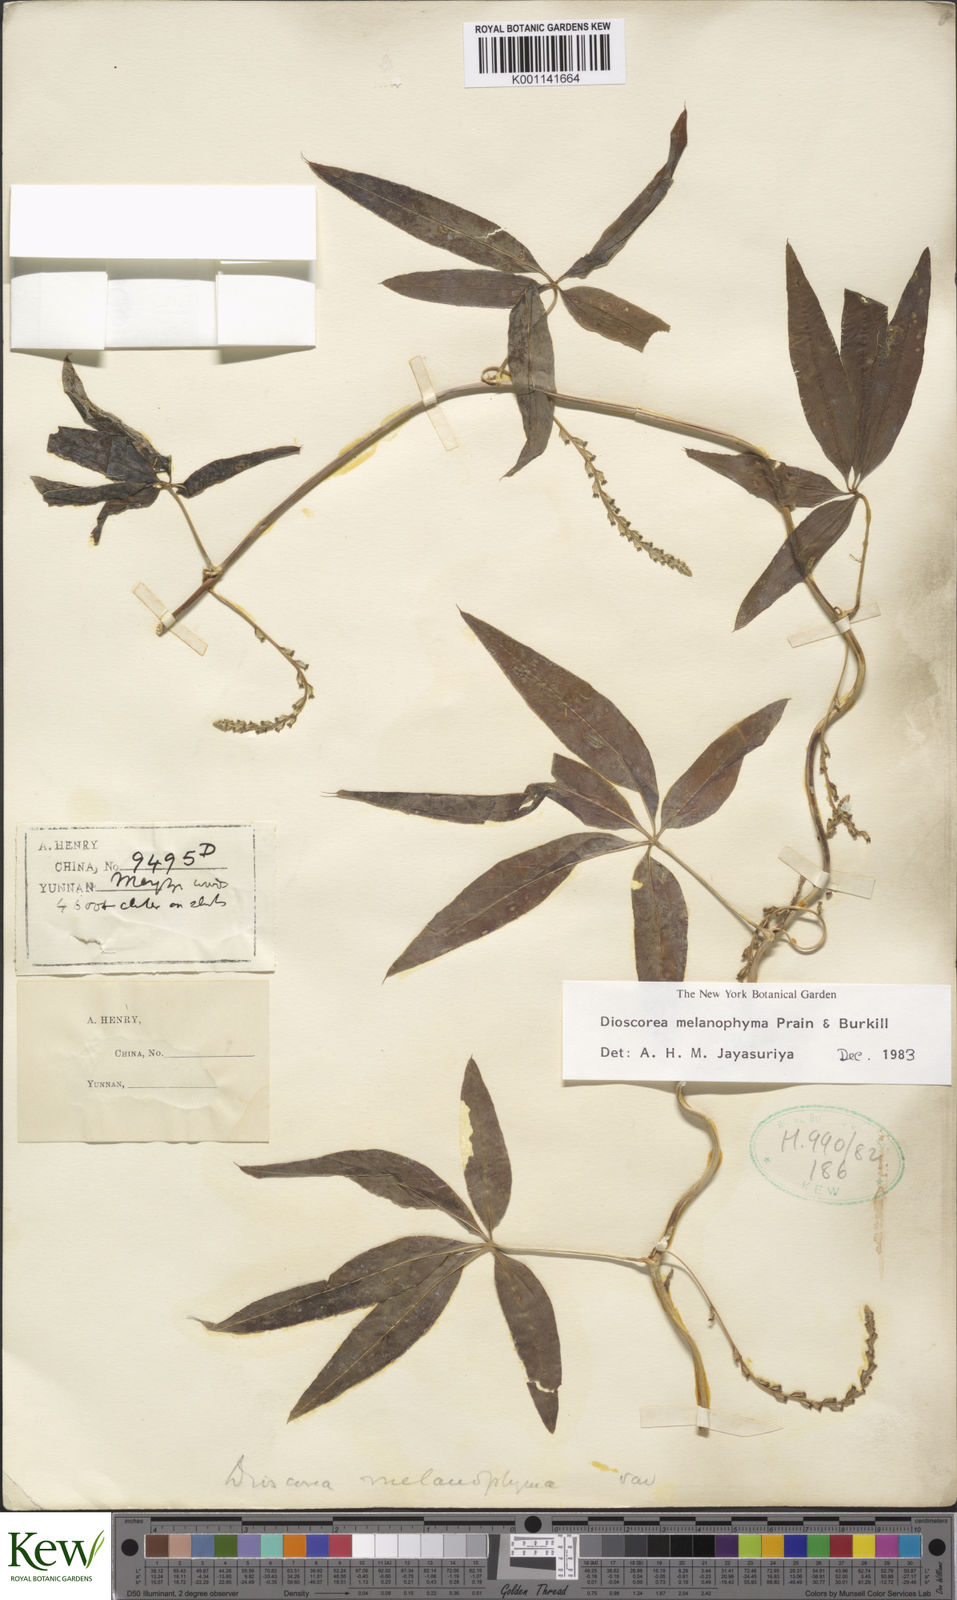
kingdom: Plantae
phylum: Tracheophyta
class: Liliopsida
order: Dioscoreales
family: Dioscoreaceae
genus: Dioscorea
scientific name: Dioscorea melanophyma
